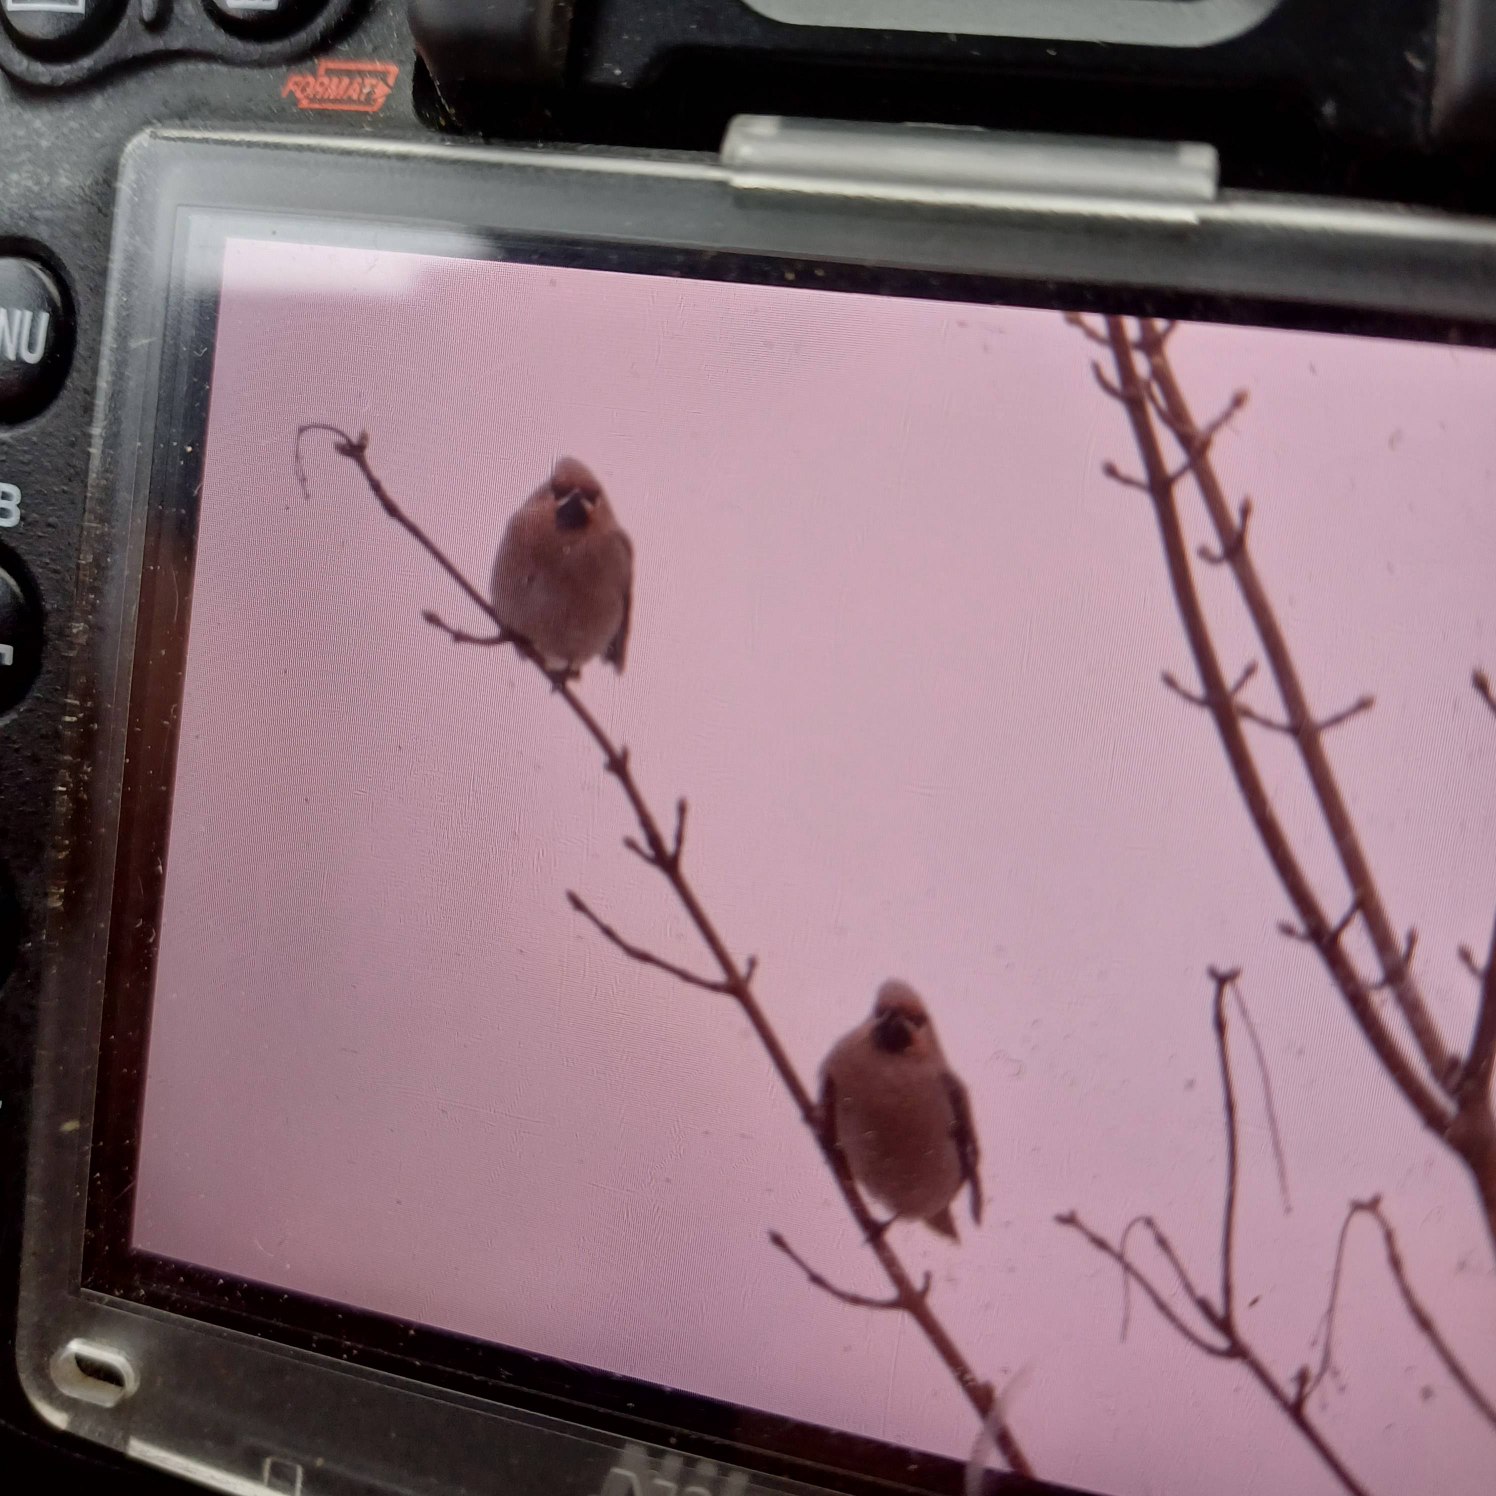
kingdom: Animalia
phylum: Chordata
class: Aves
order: Passeriformes
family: Bombycillidae
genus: Bombycilla
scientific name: Bombycilla garrulus
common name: Silkehale
